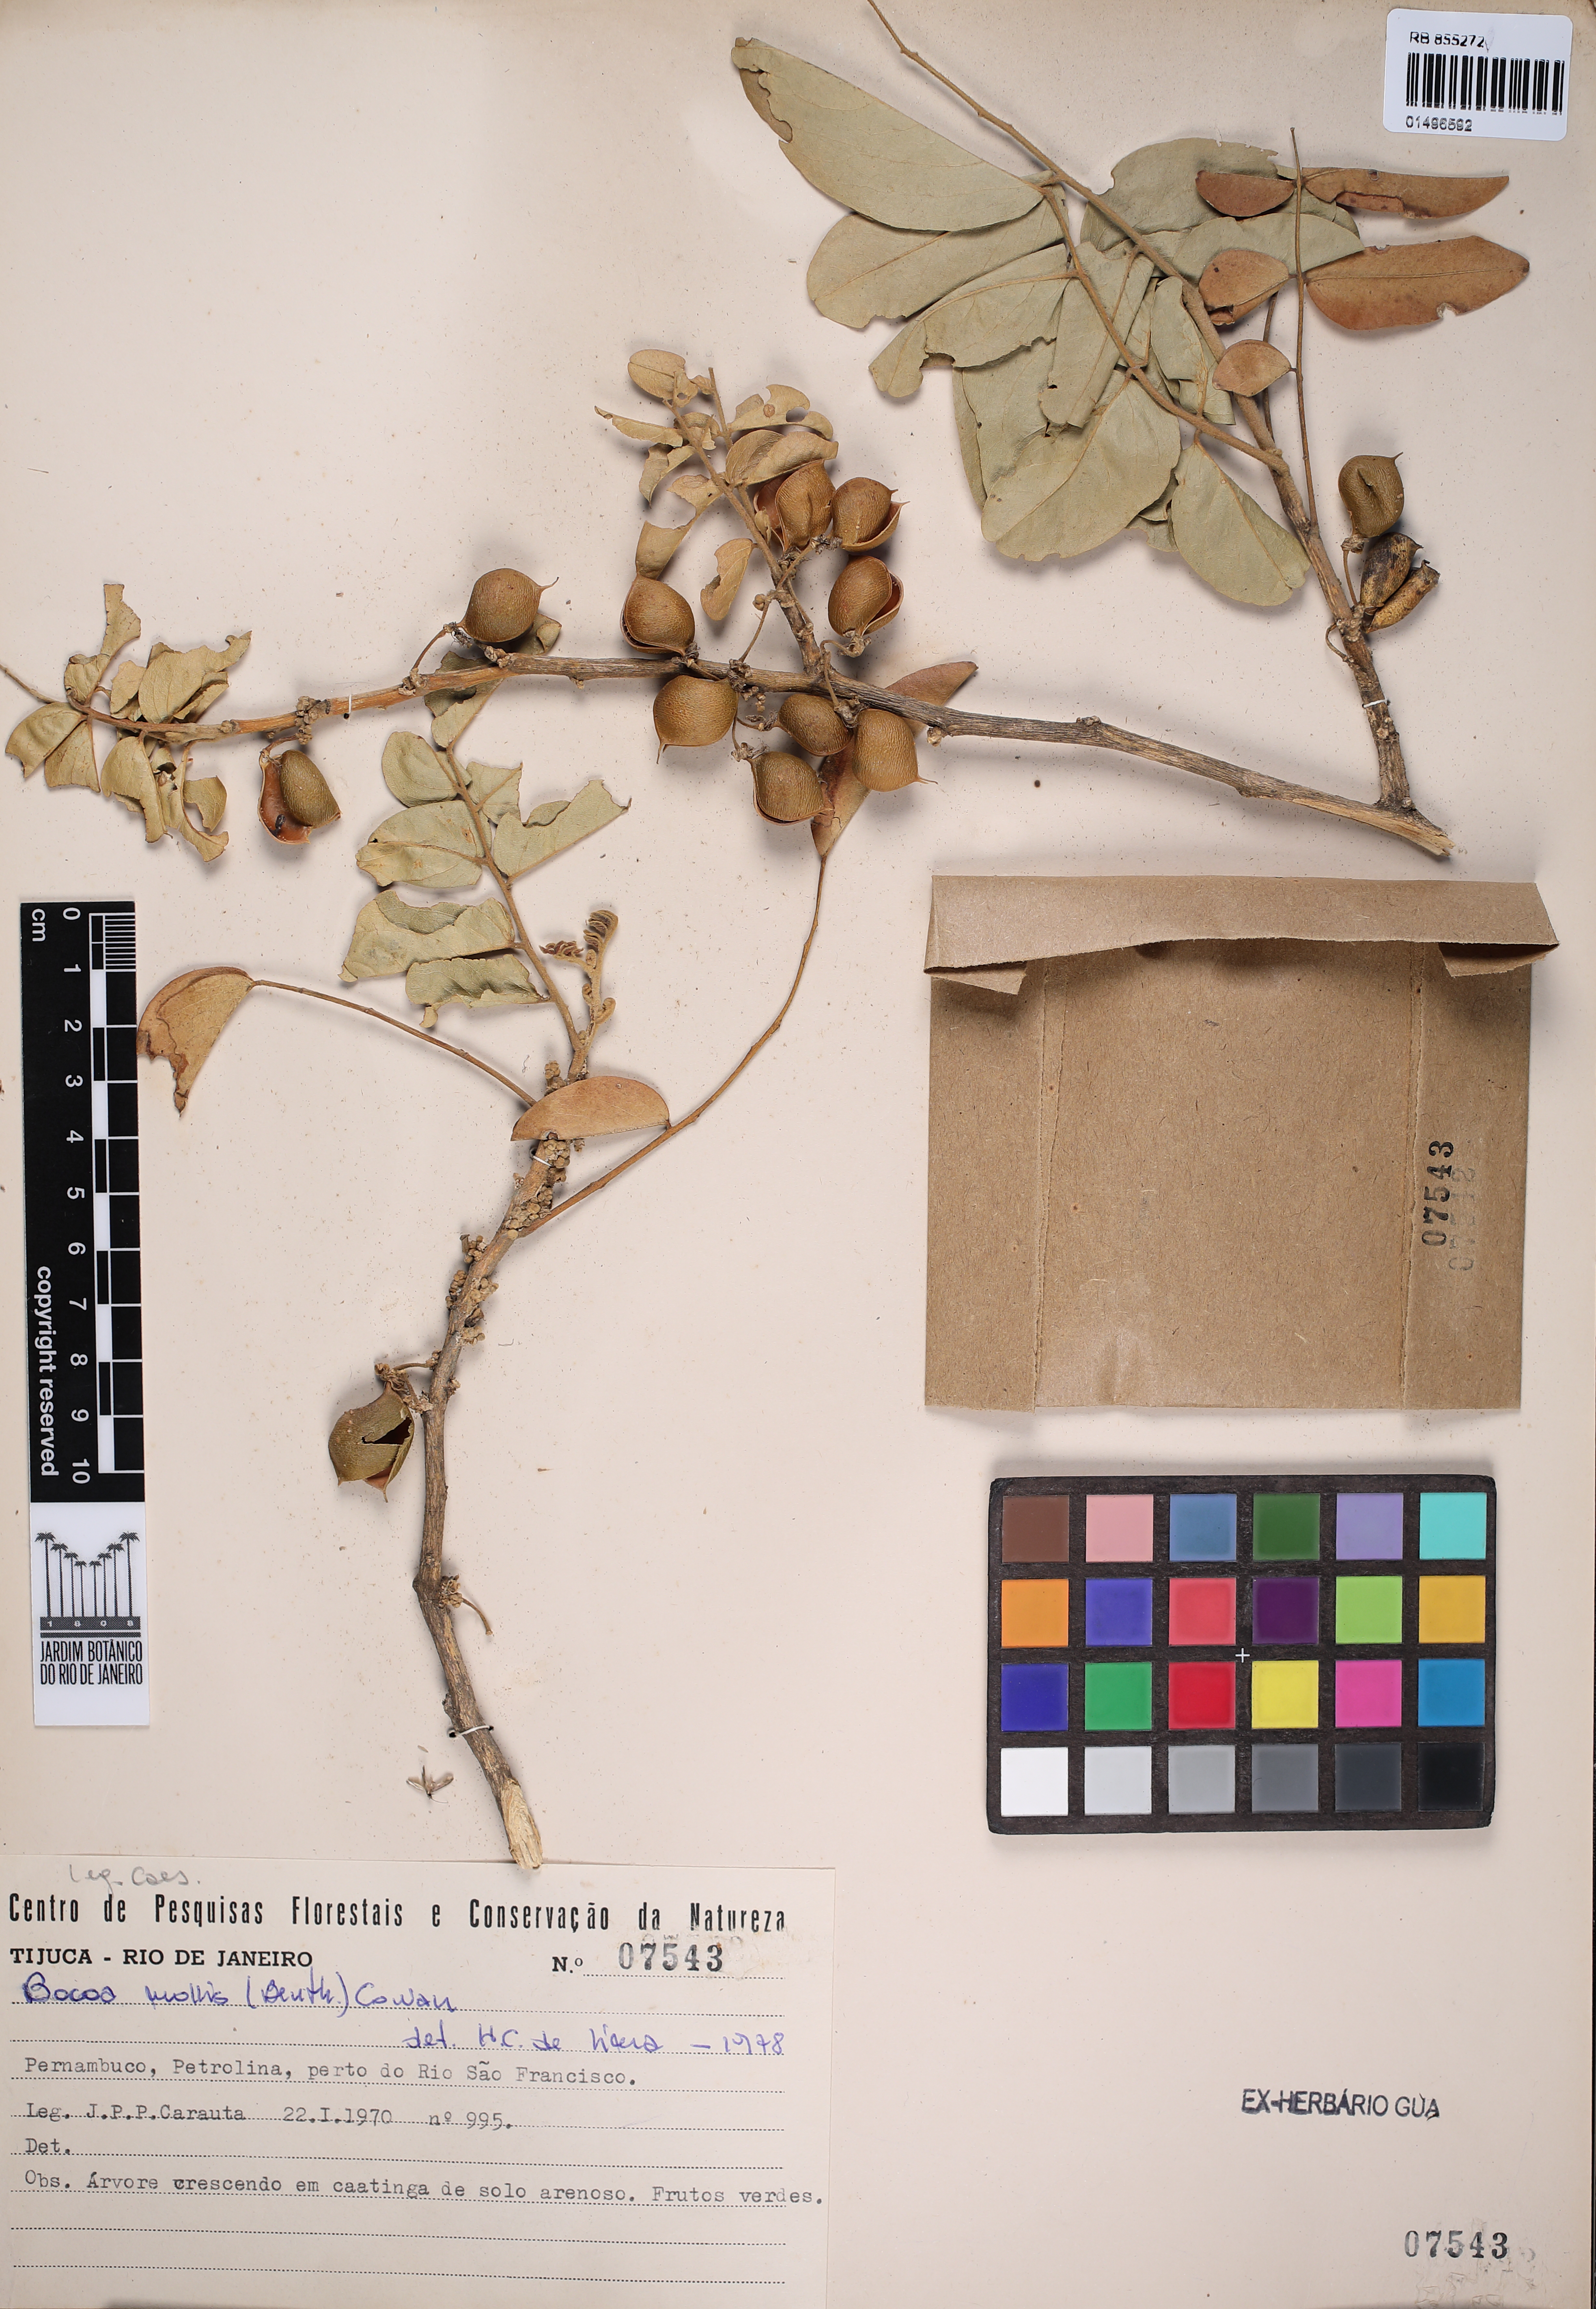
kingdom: Plantae
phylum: Tracheophyta
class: Magnoliopsida
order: Fabales
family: Fabaceae
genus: Trischidium
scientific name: Trischidium molle
